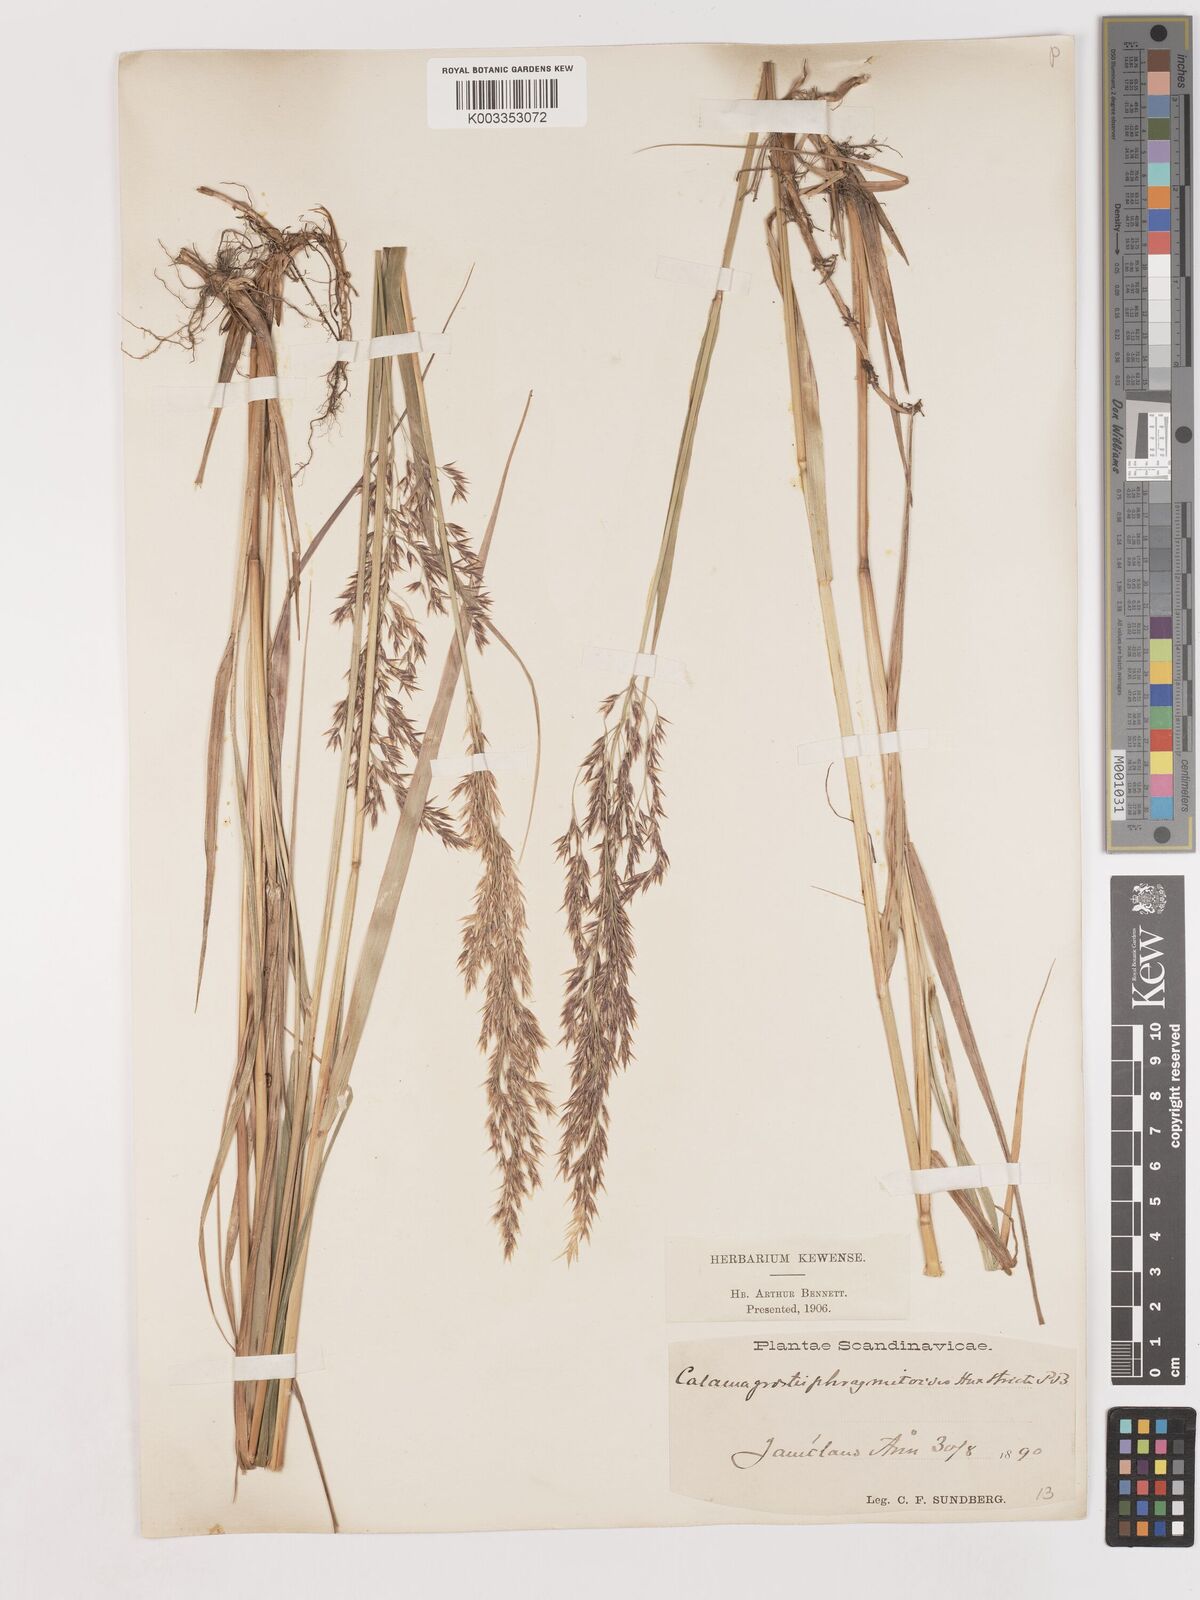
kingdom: Plantae
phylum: Tracheophyta
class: Liliopsida
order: Poales
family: Poaceae
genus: Calamagrostis
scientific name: Calamagrostis epigejos
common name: Wood small-reed
